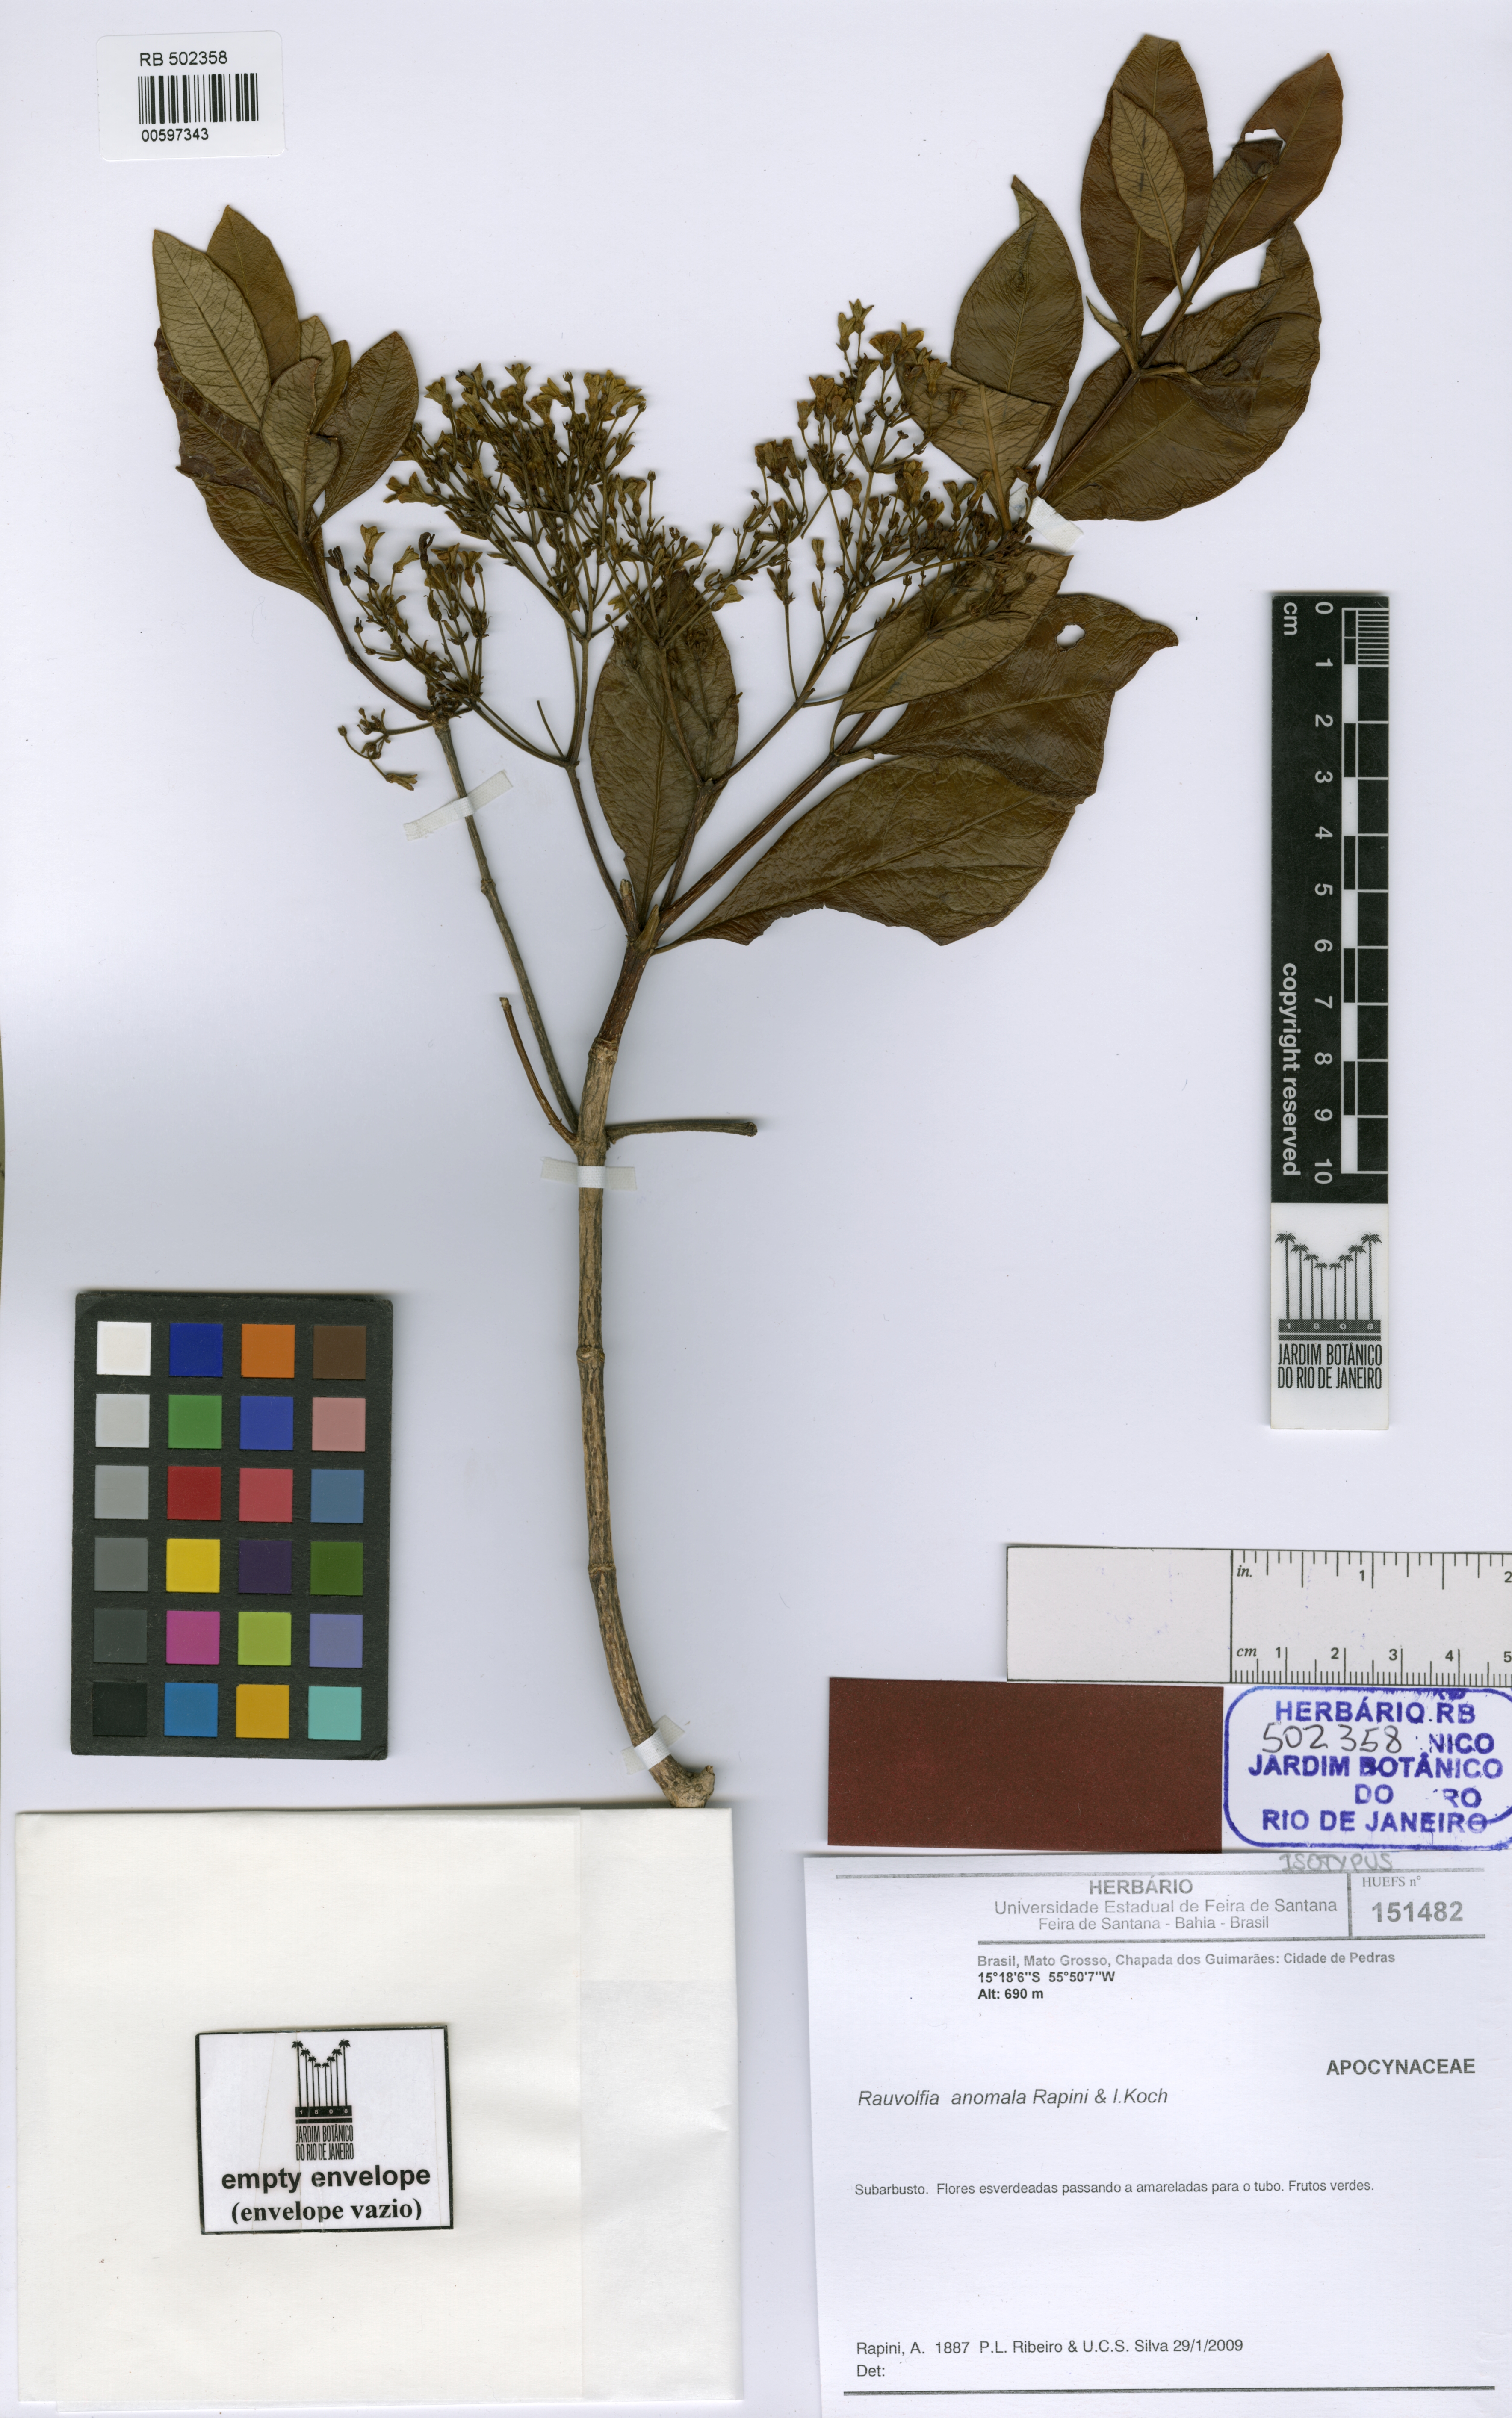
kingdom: Plantae
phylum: Tracheophyta
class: Magnoliopsida
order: Gentianales
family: Apocynaceae
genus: Rauvolfia
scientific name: Rauvolfia anomala
